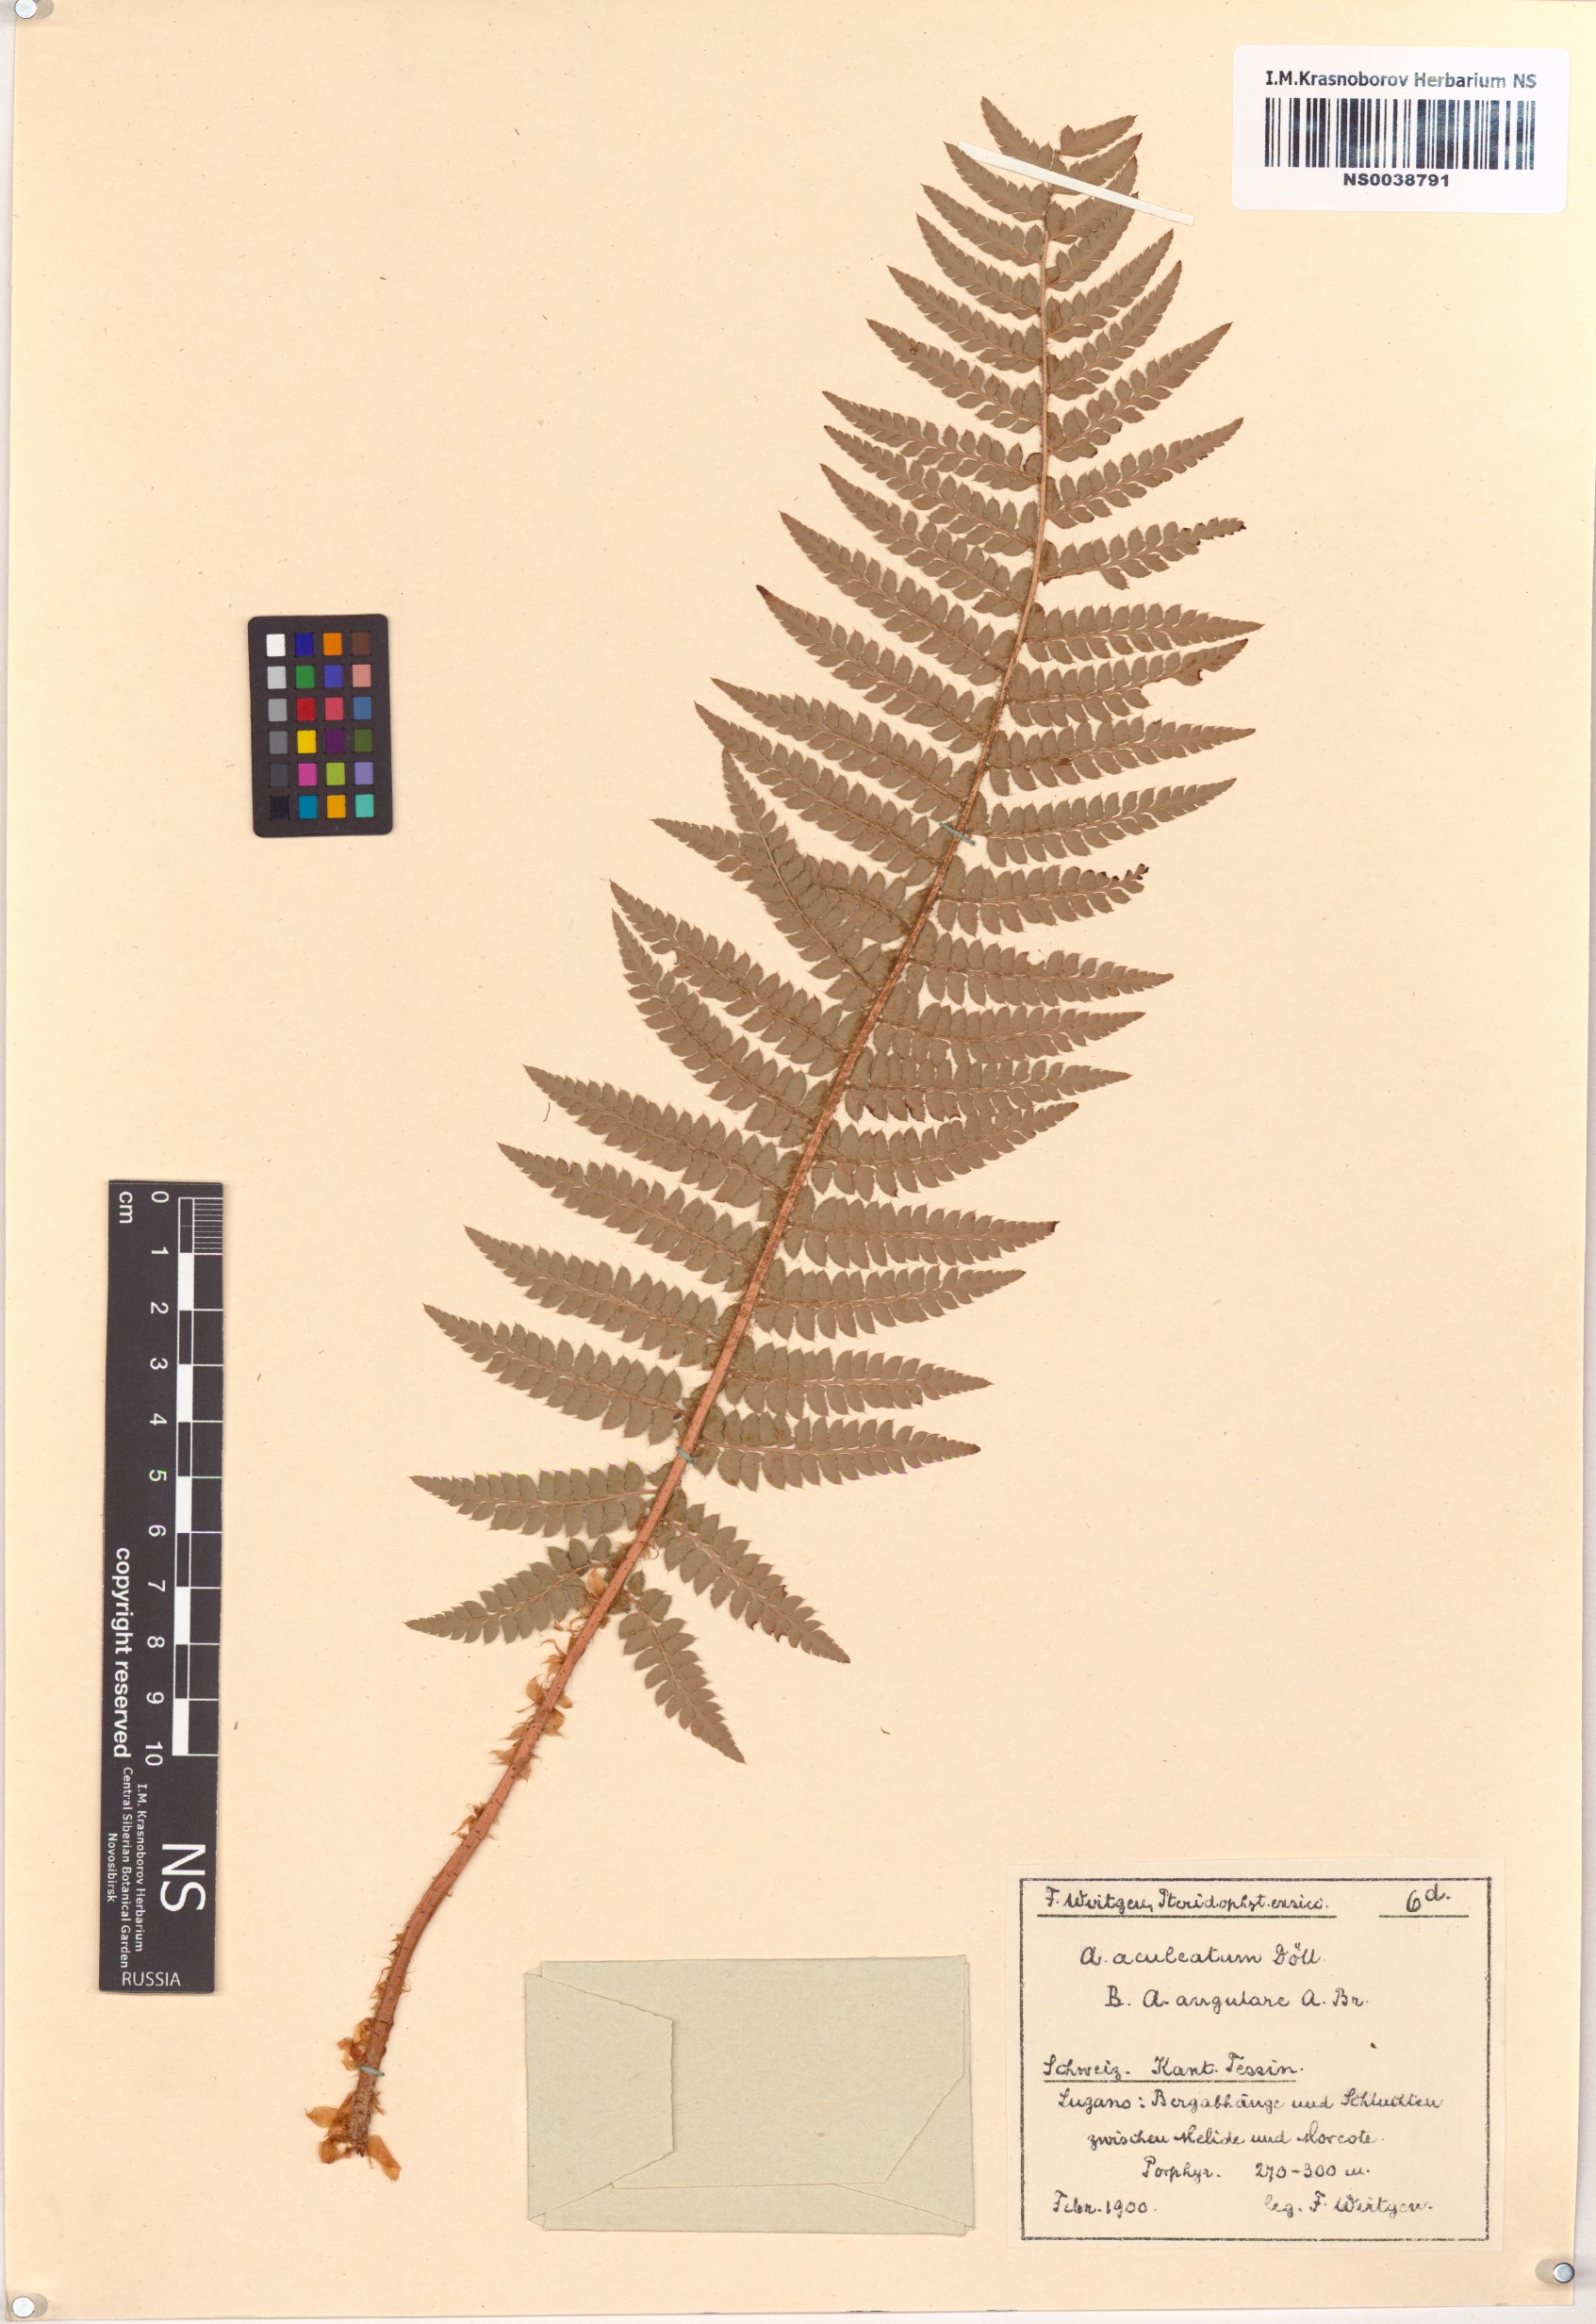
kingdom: Plantae
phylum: Tracheophyta
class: Polypodiopsida
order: Polypodiales
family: Dryopteridaceae
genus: Polystichum
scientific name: Polystichum aculeatum
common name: Hard shield-fern
